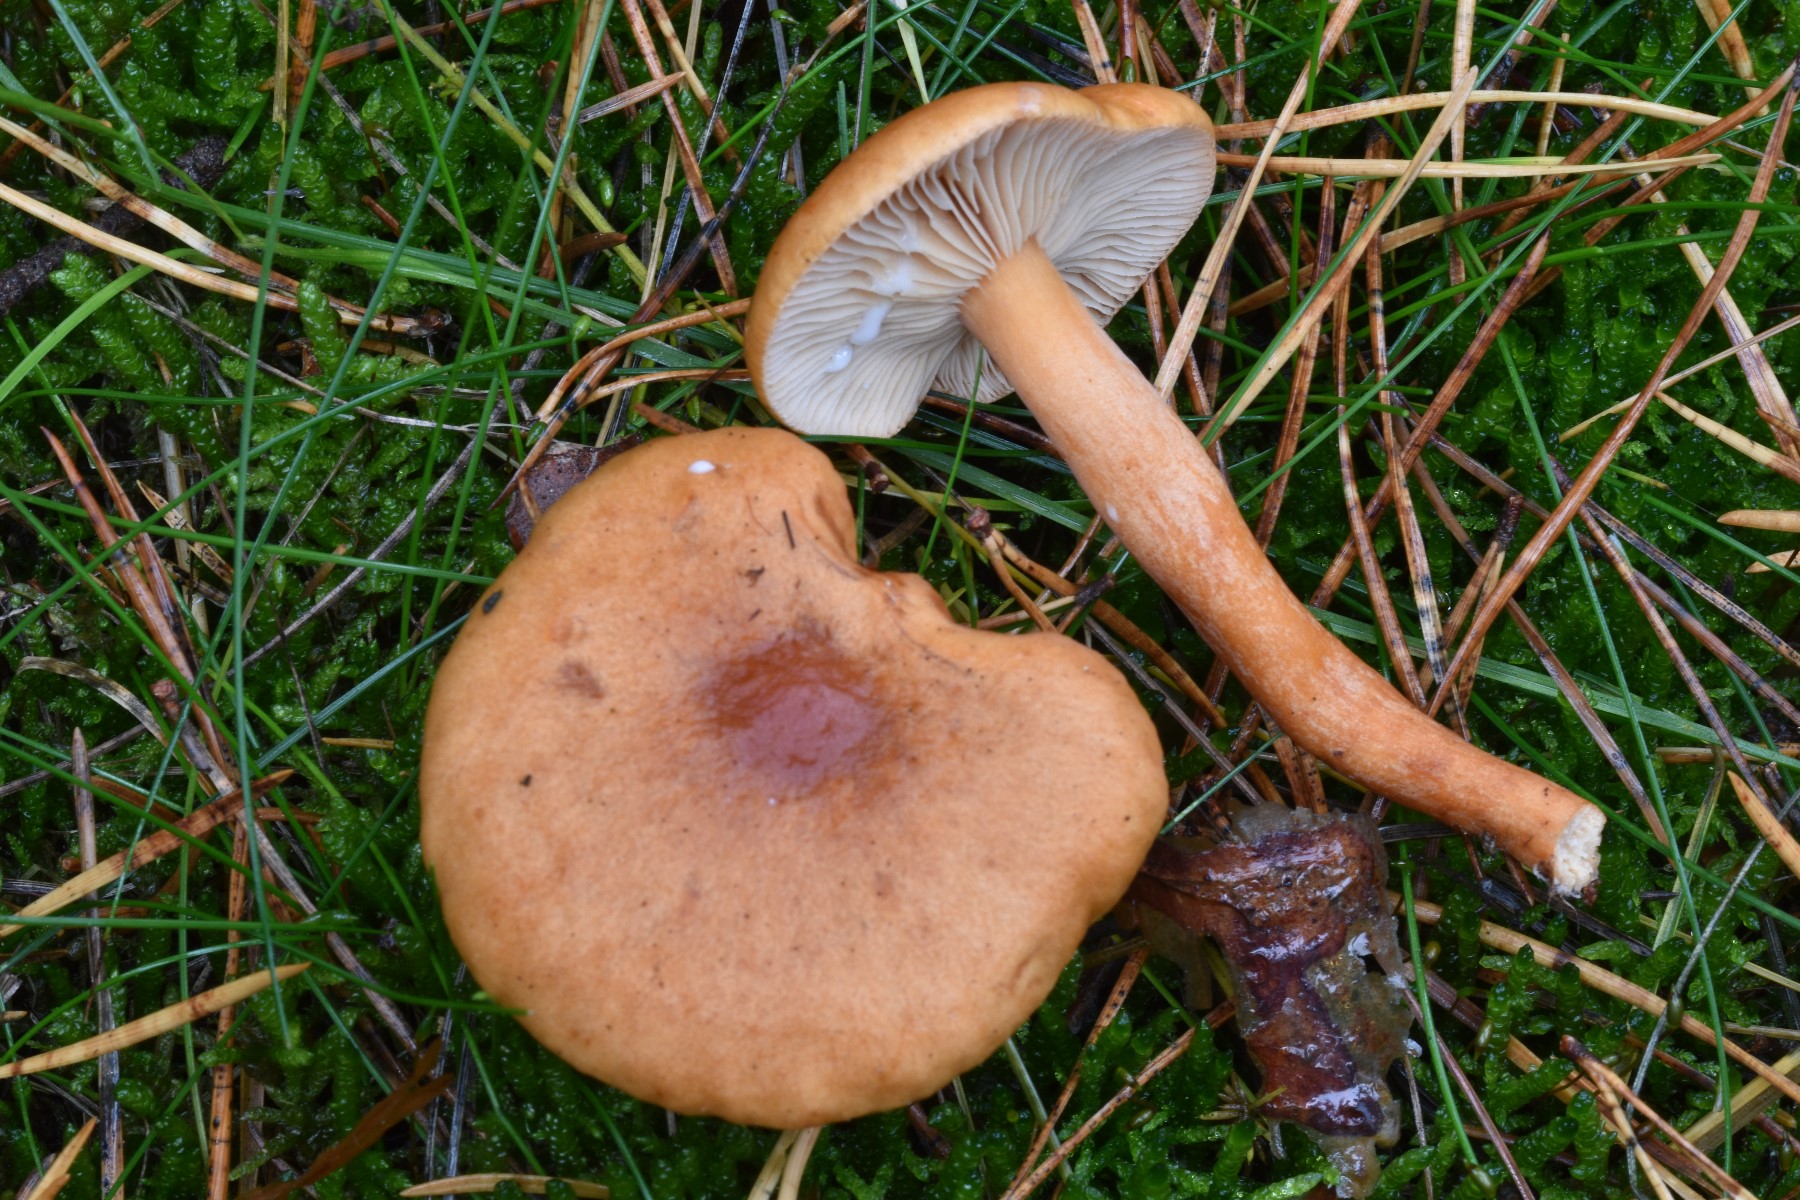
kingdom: Fungi
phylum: Basidiomycota
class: Agaricomycetes
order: Russulales
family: Russulaceae
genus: Lactarius
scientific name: Lactarius aurantiacus
